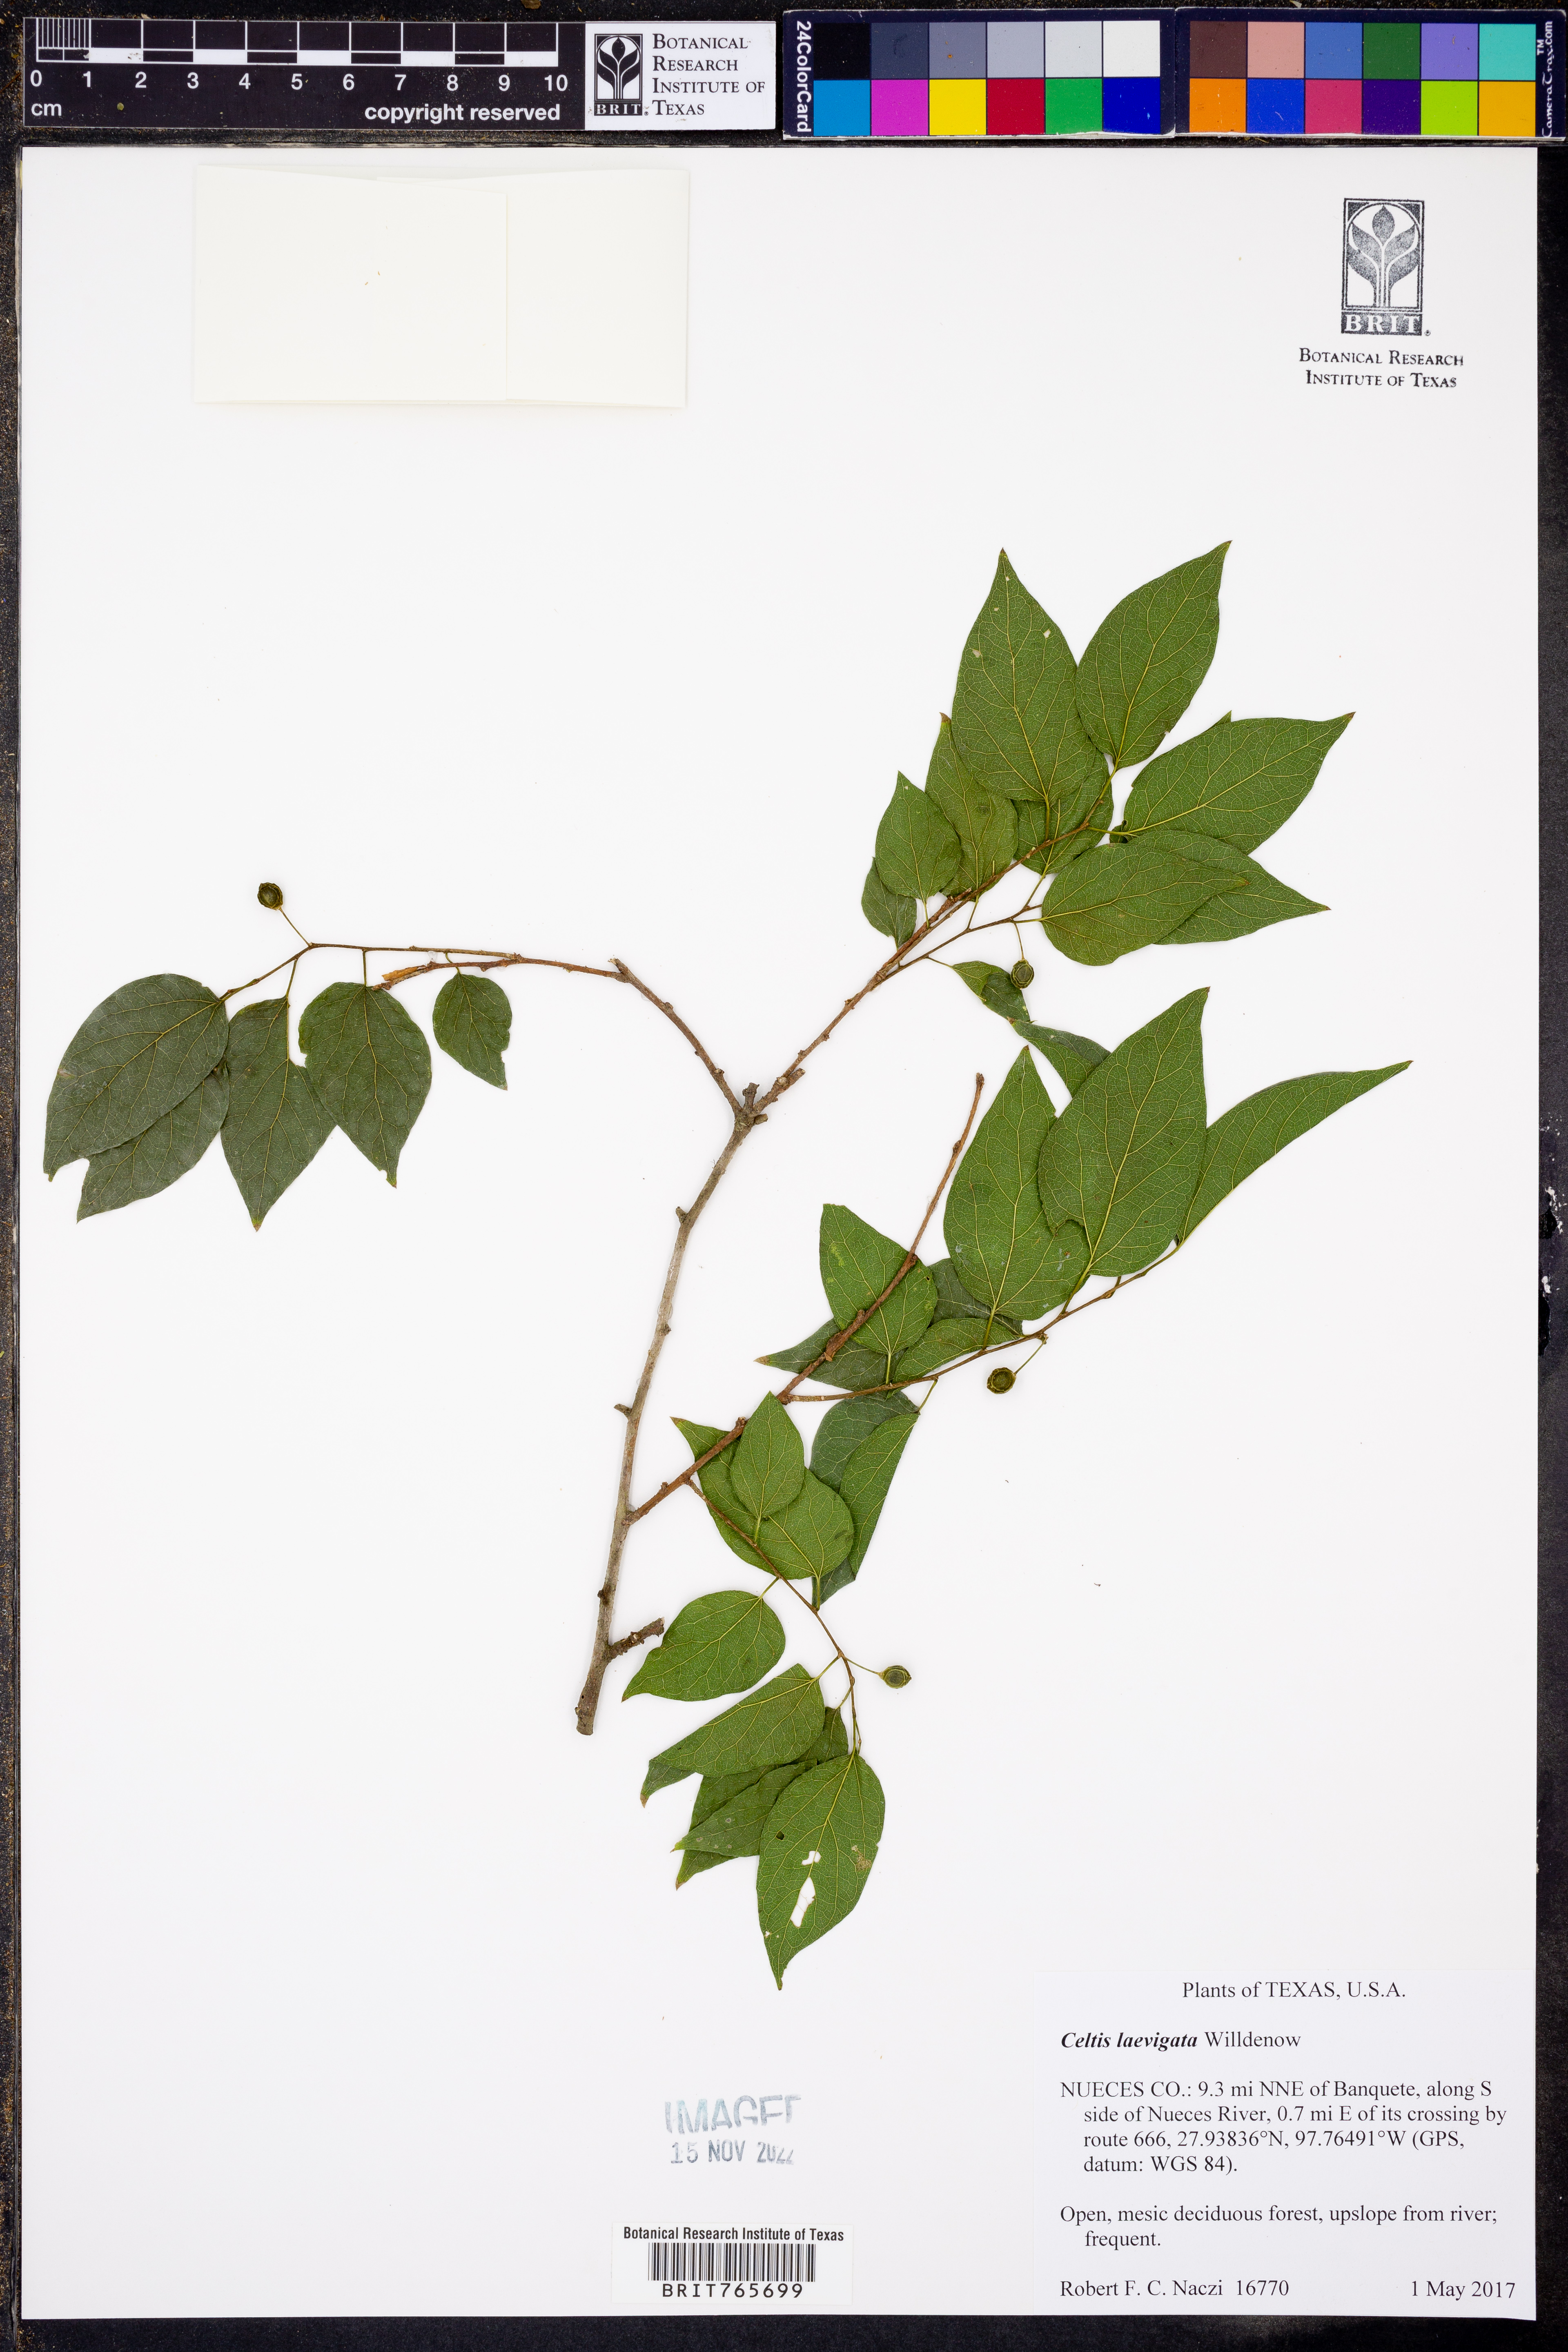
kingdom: Plantae
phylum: Tracheophyta
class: Magnoliopsida
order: Rosales
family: Cannabaceae
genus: Celtis
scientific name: Celtis laevigata
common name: Sugarberry
